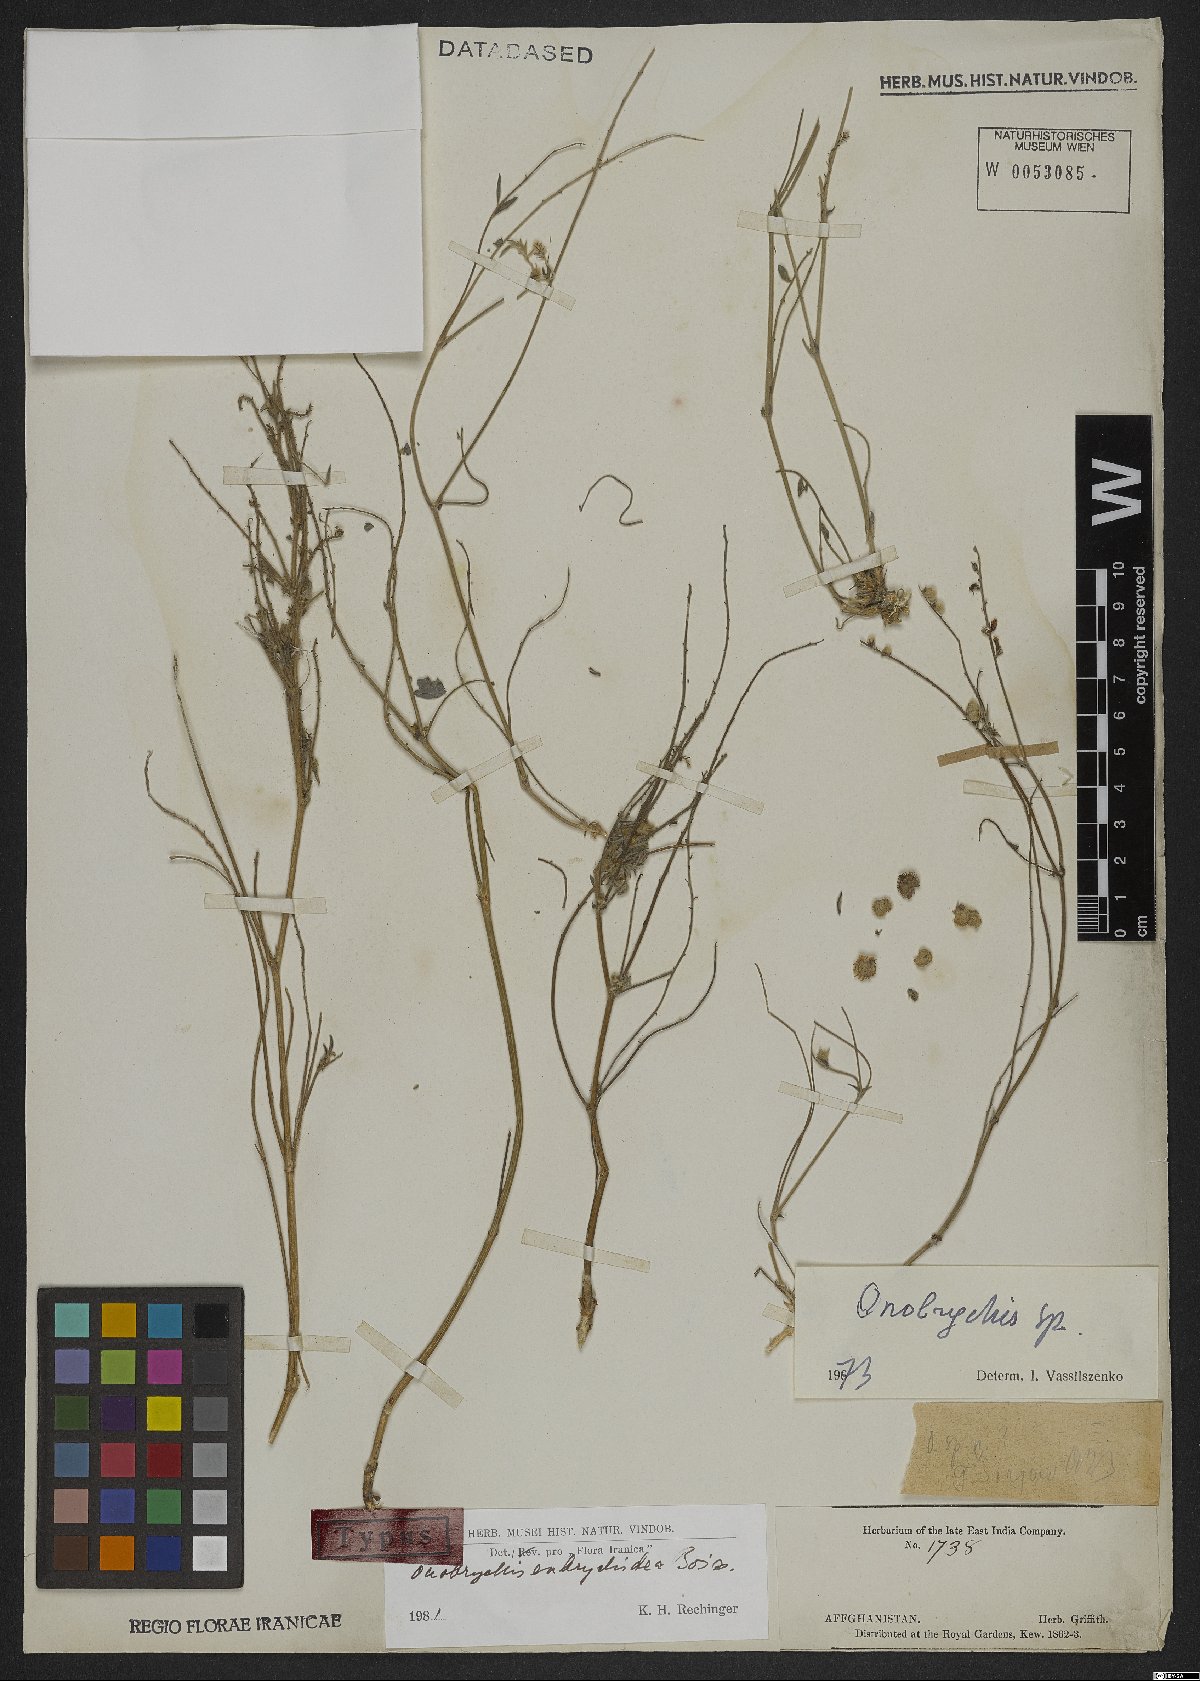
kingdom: Plantae
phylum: Tracheophyta
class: Magnoliopsida
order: Fabales
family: Fabaceae
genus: Onobrychis
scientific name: Onobrychis eubrychidea
